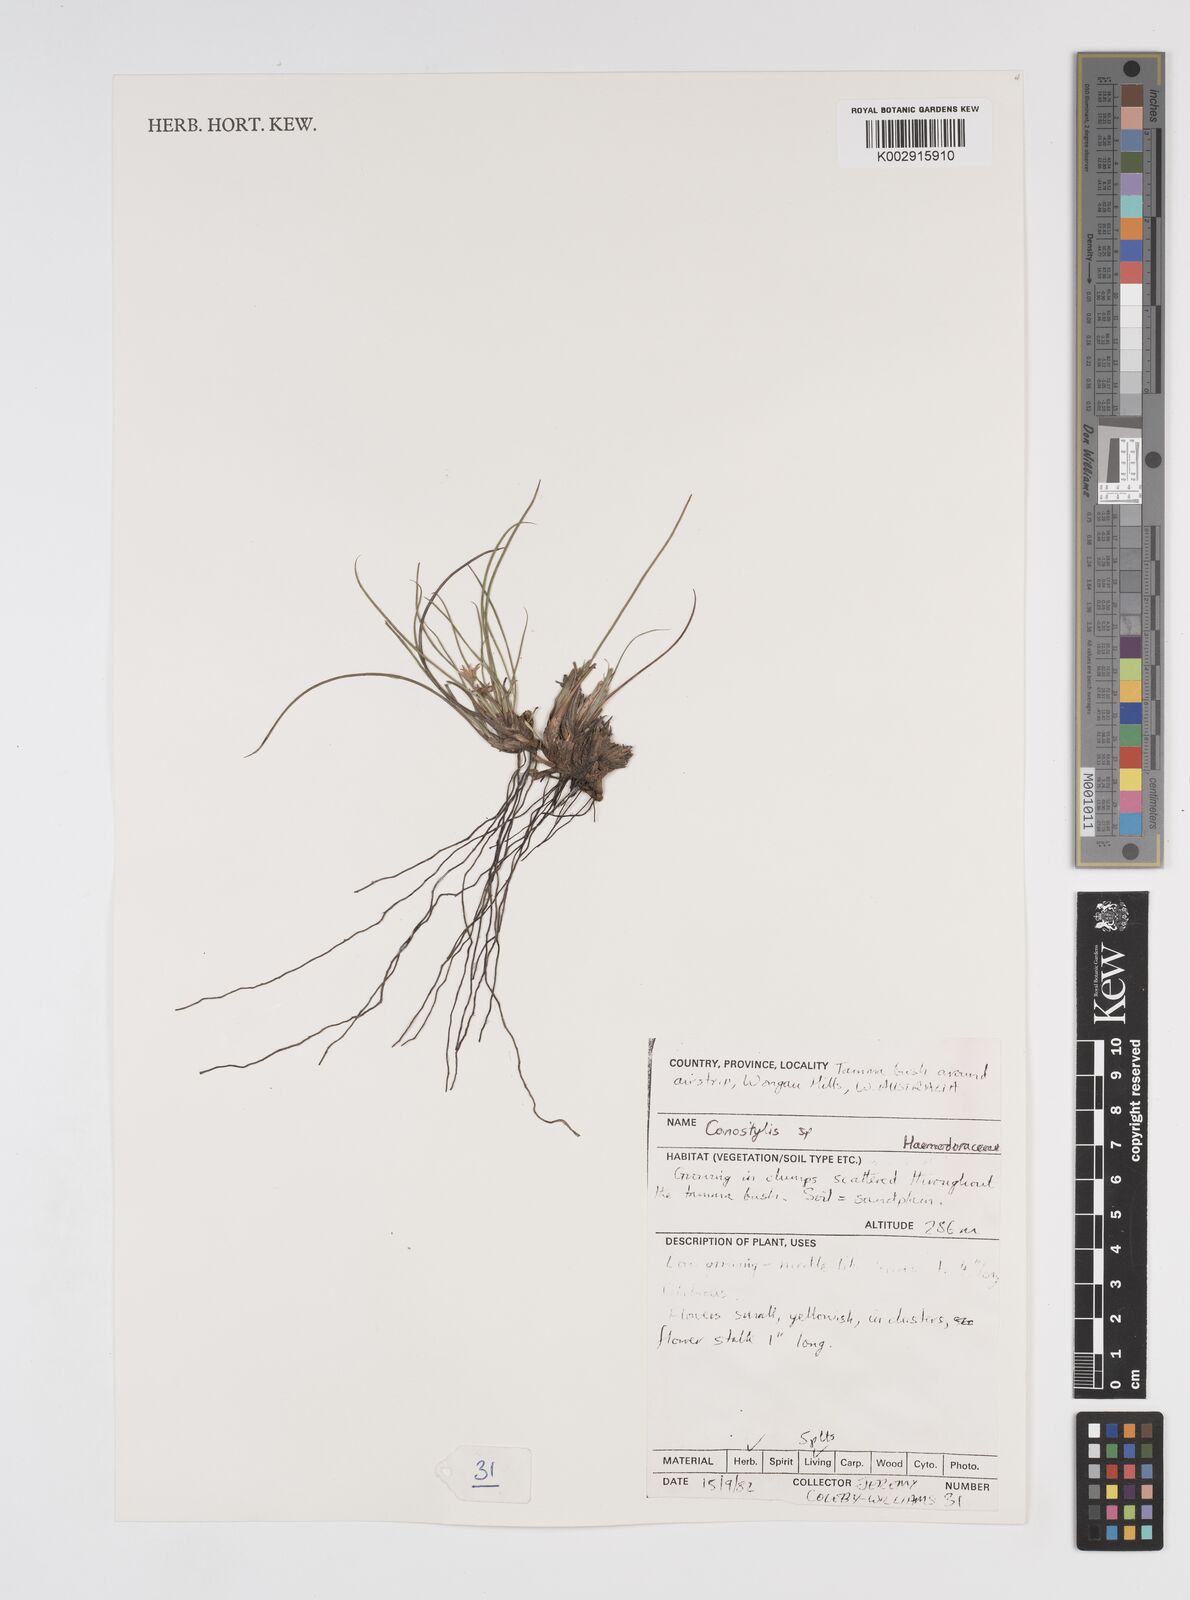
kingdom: Plantae
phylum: Tracheophyta
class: Liliopsida
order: Commelinales
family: Haemodoraceae
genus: Conostylis
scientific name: Conostylis
